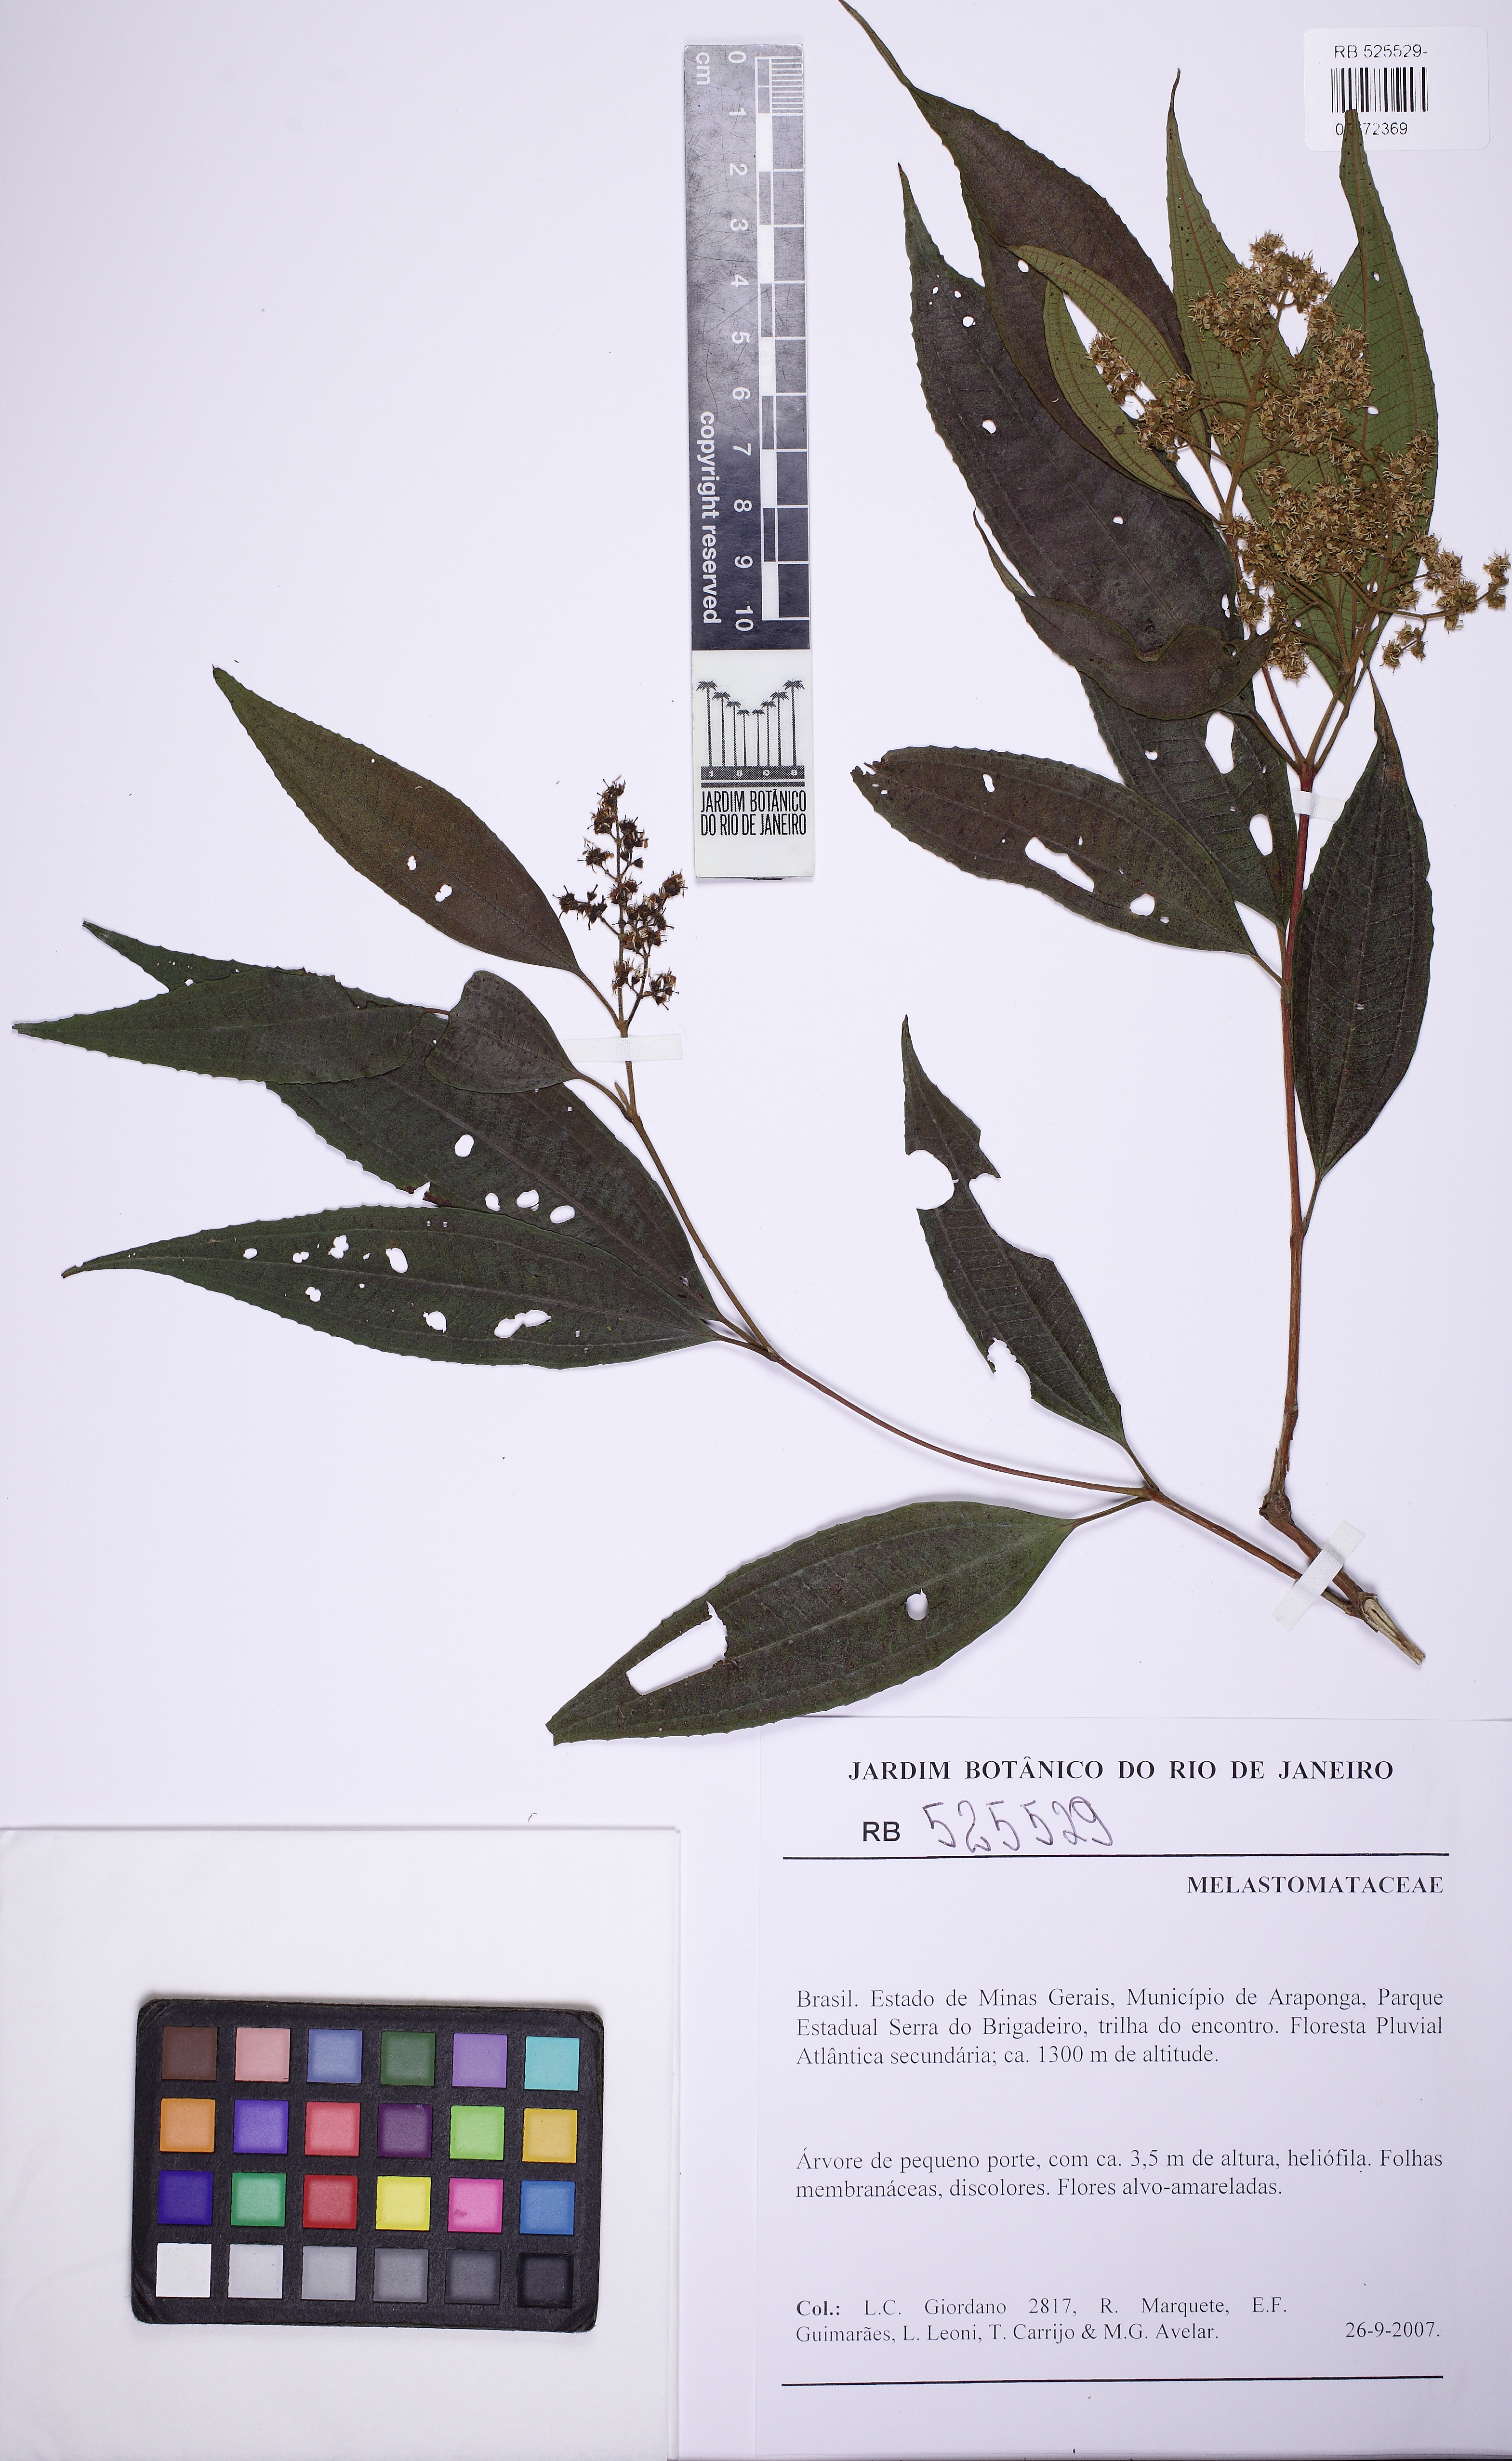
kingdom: Plantae
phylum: Tracheophyta
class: Magnoliopsida
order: Myrtales
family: Melastomataceae
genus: Miconia
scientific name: Miconia sellowiana
